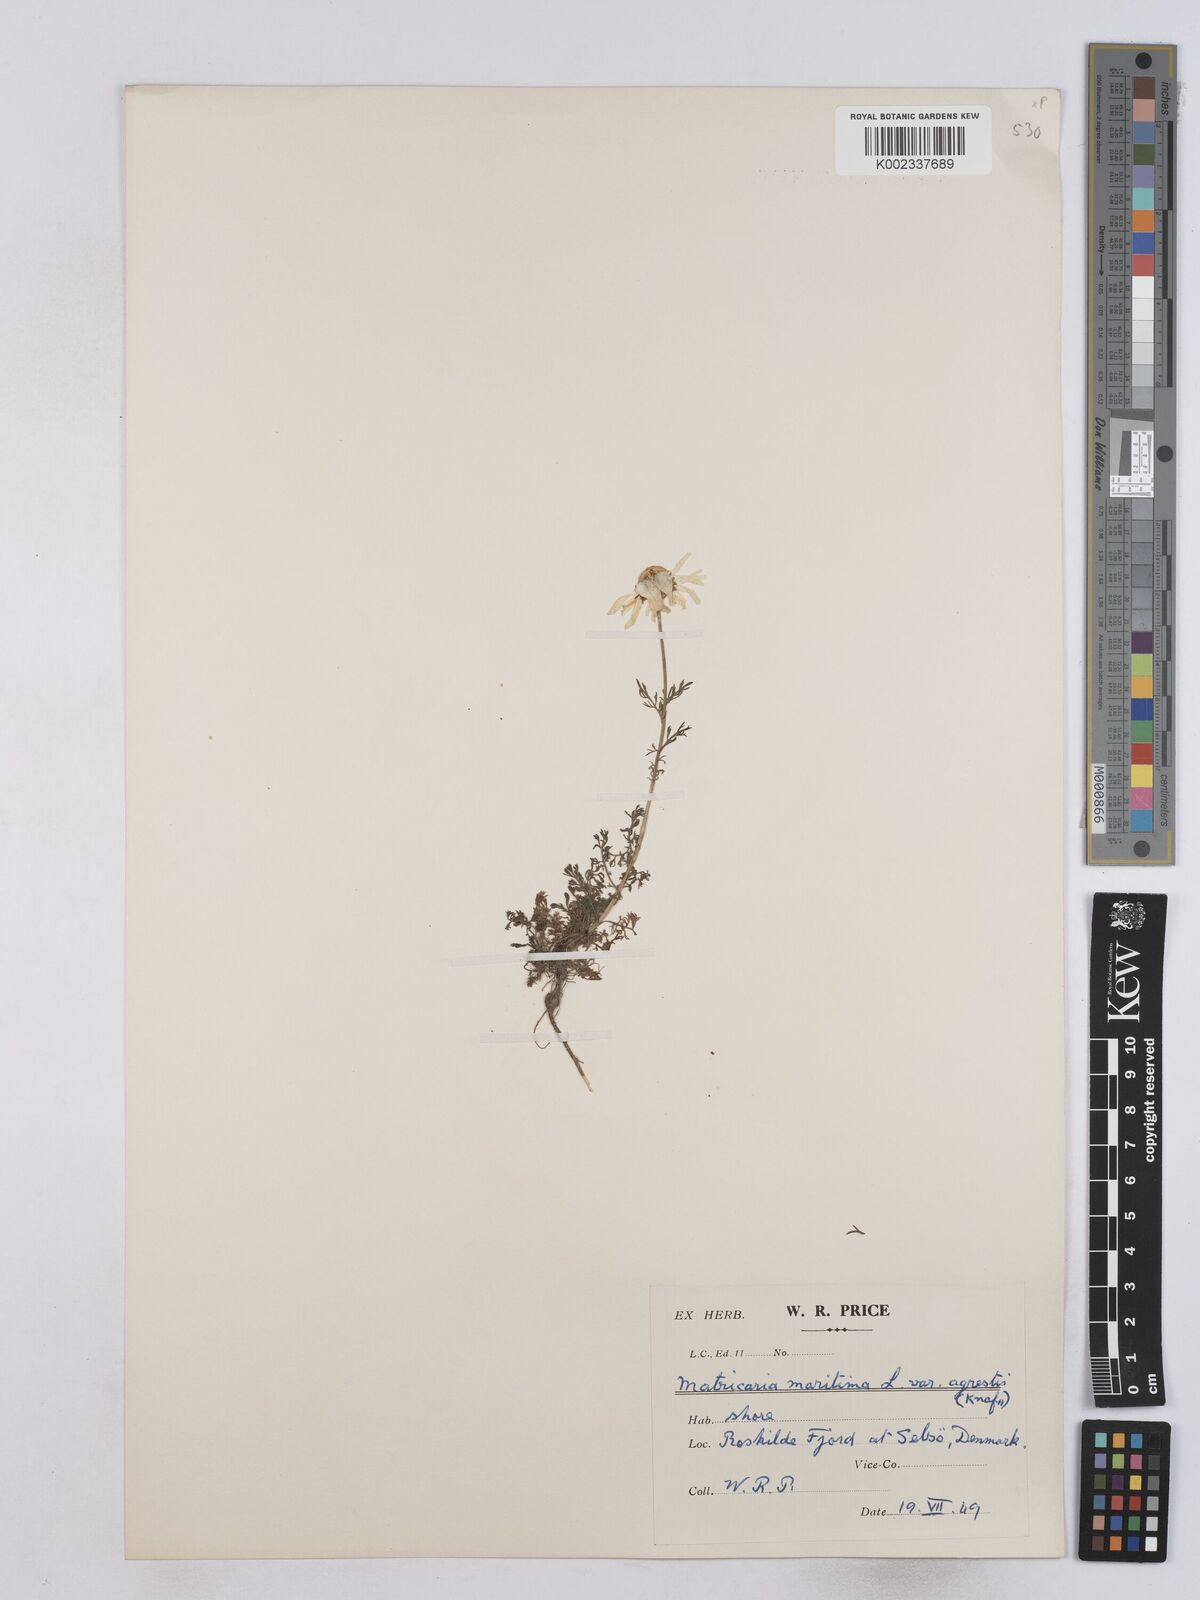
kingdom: Plantae
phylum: Tracheophyta
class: Magnoliopsida
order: Asterales
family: Asteraceae
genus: Matricaria
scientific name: Matricaria discoidea
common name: Disc mayweed
